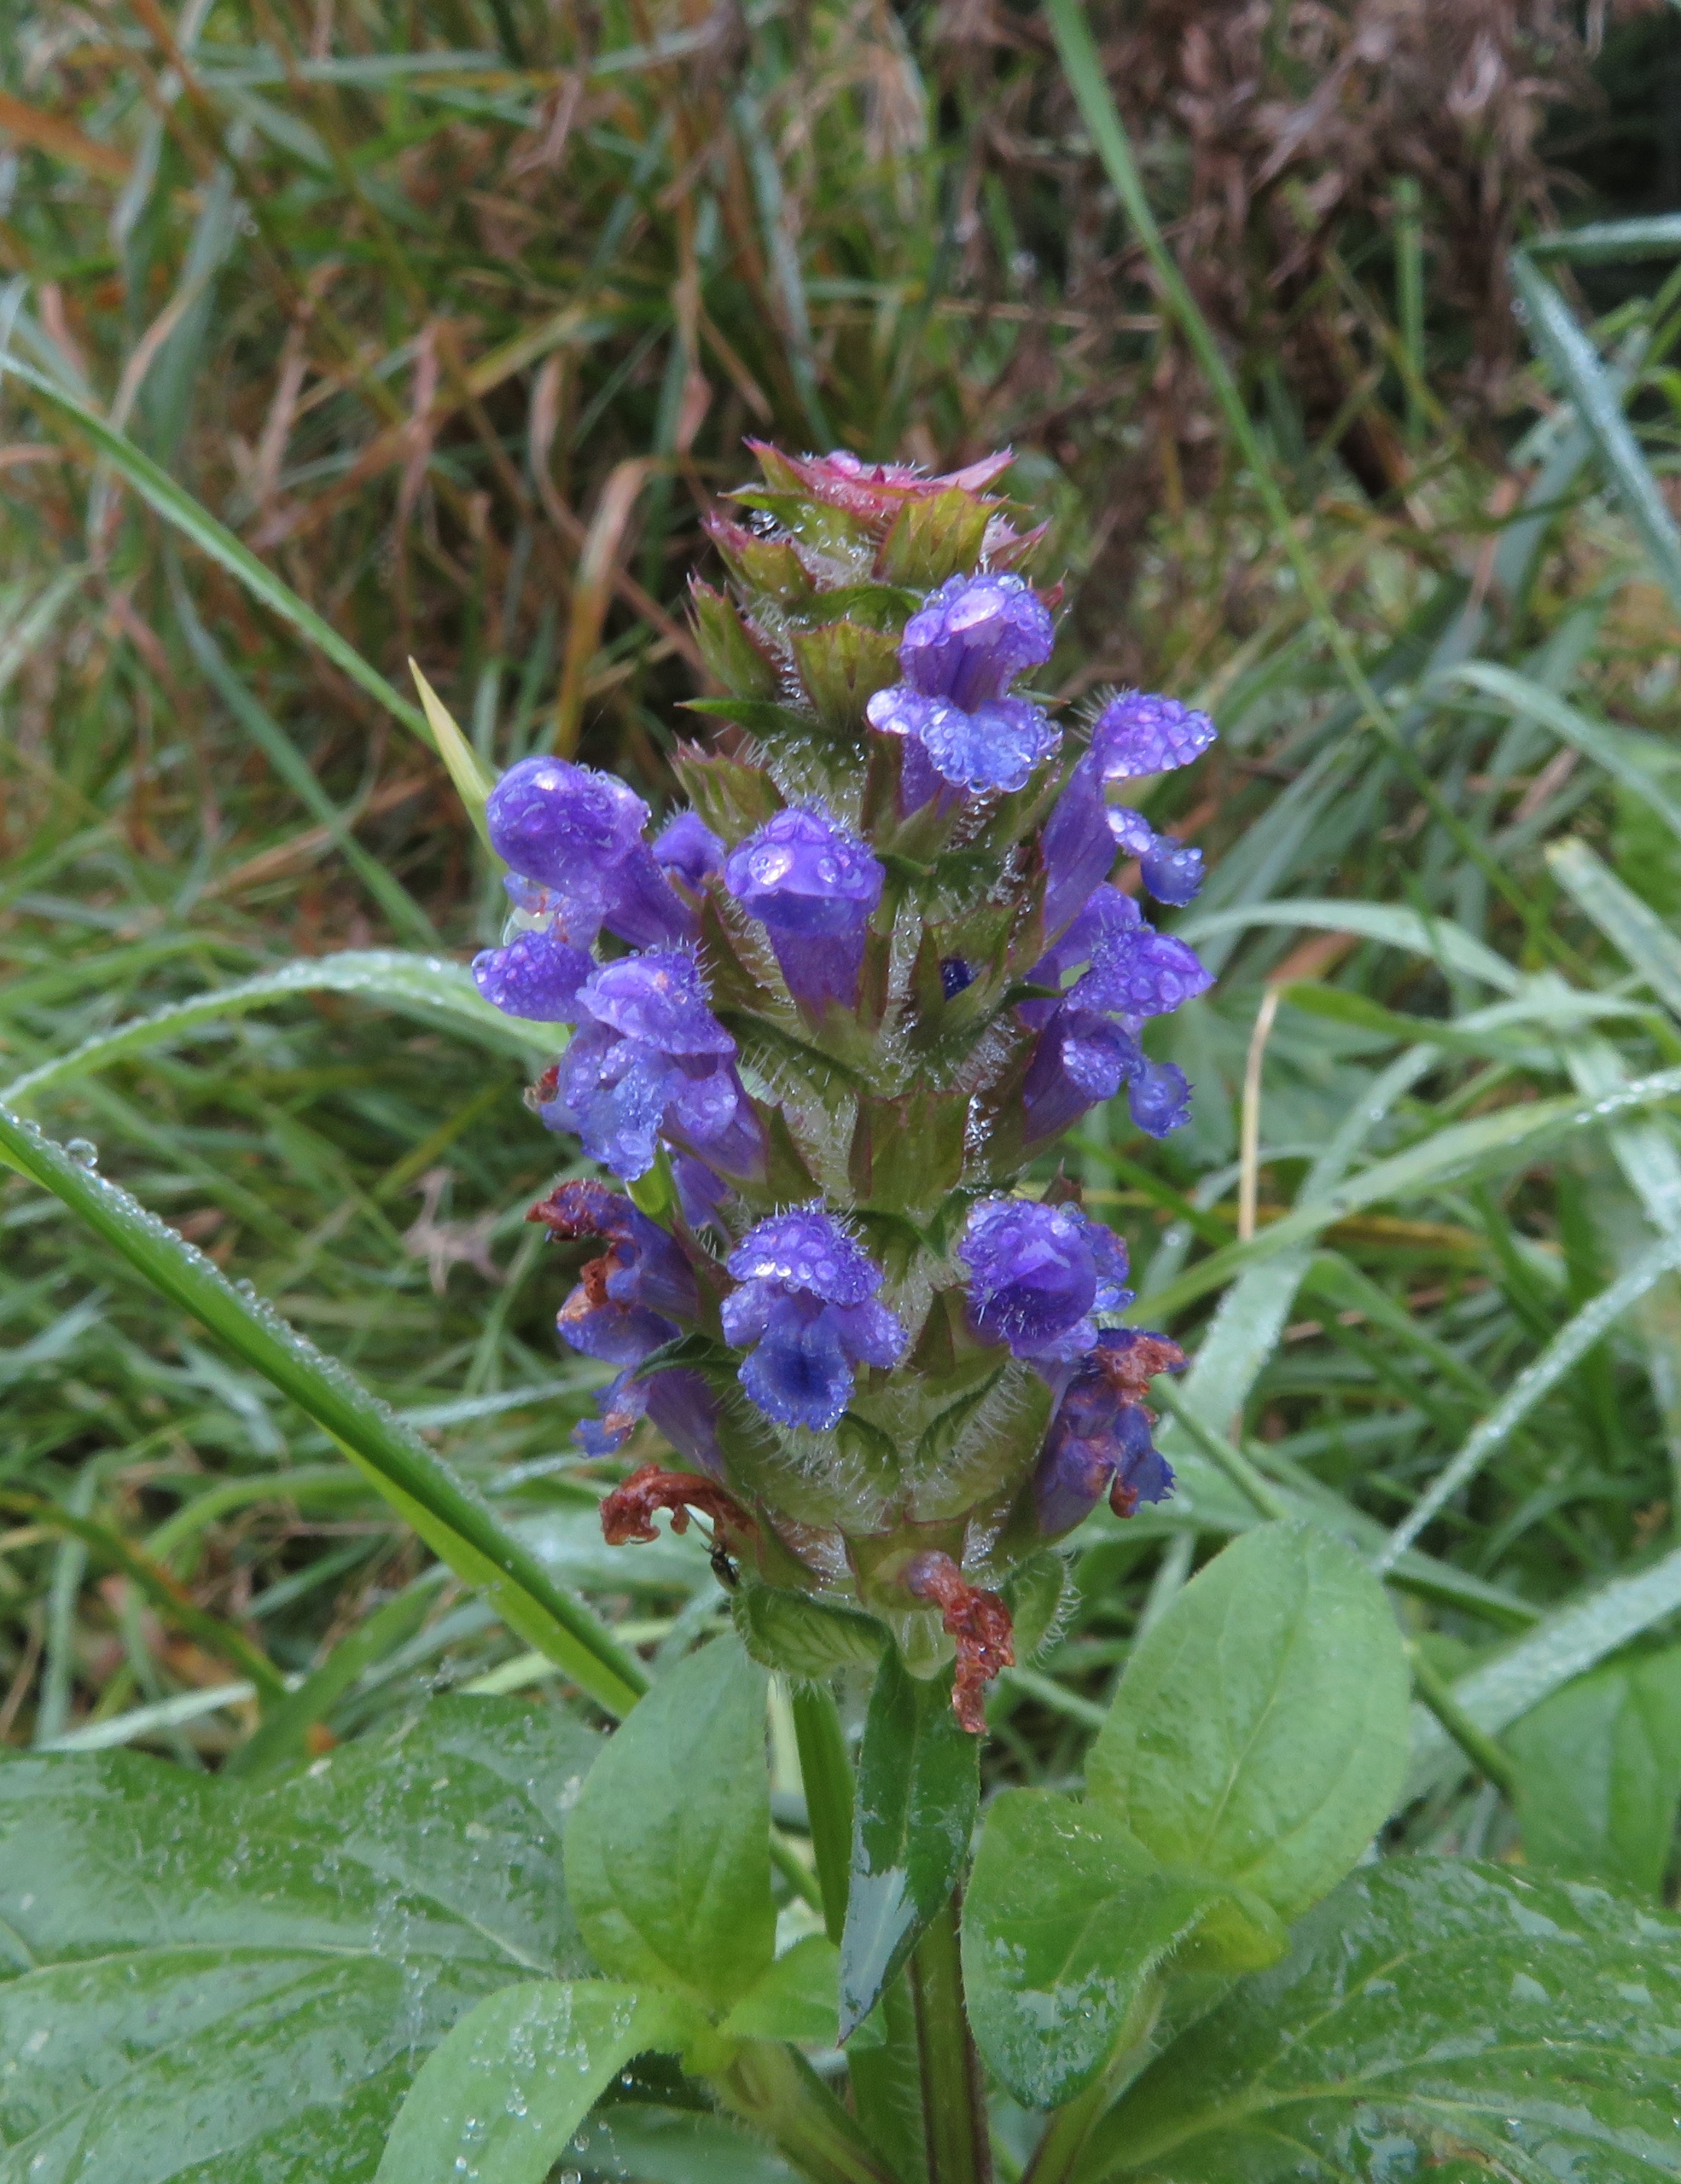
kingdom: Plantae
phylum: Tracheophyta
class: Magnoliopsida
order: Lamiales
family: Lamiaceae
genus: Prunella
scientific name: Prunella vulgaris
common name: Almindelig brunelle
